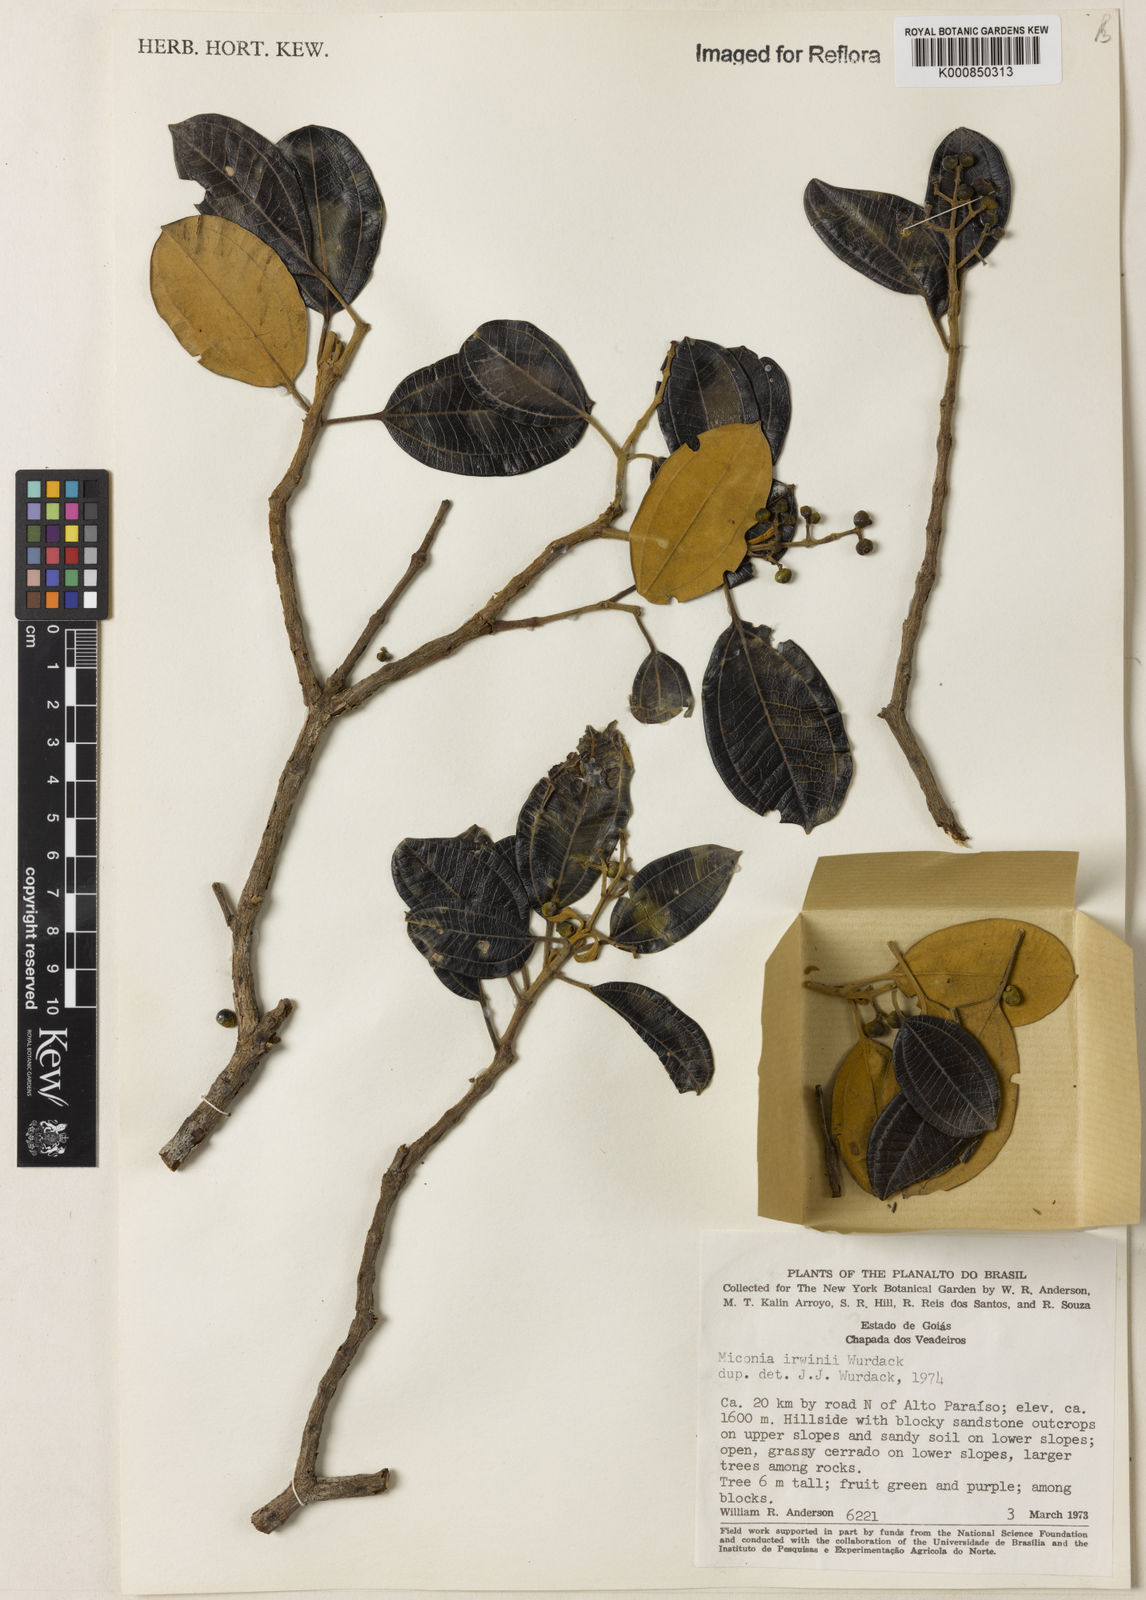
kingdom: Plantae
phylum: Tracheophyta
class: Magnoliopsida
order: Myrtales
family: Melastomataceae
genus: Miconia
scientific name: Miconia irwinii
